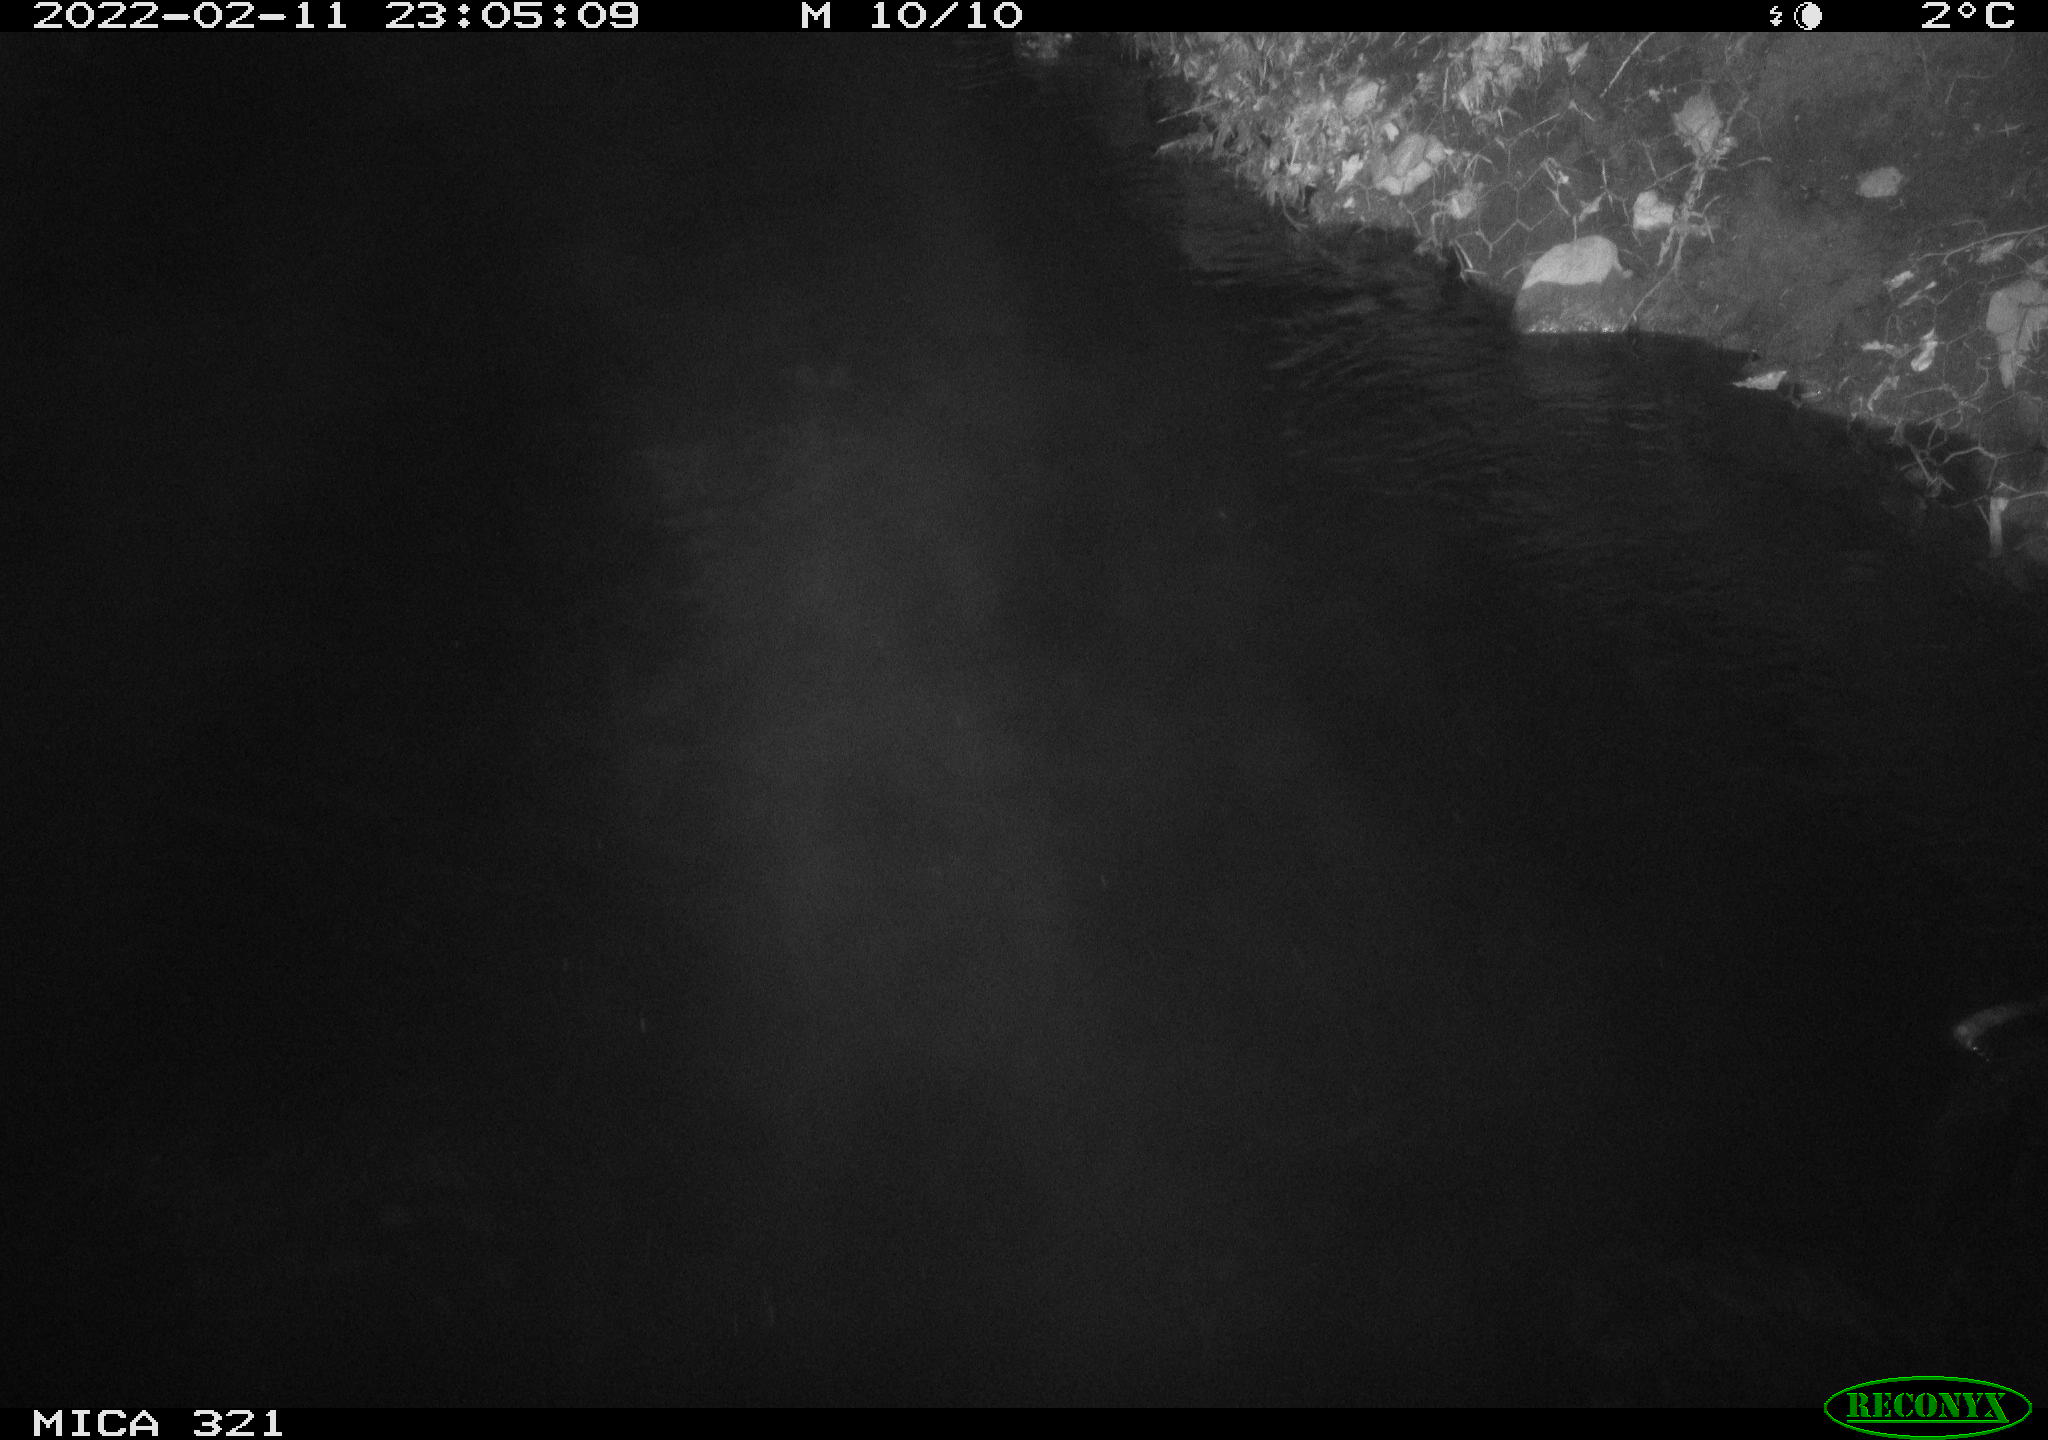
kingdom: Animalia
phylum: Chordata
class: Aves
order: Anseriformes
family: Anatidae
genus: Anas
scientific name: Anas platyrhynchos
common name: Mallard
